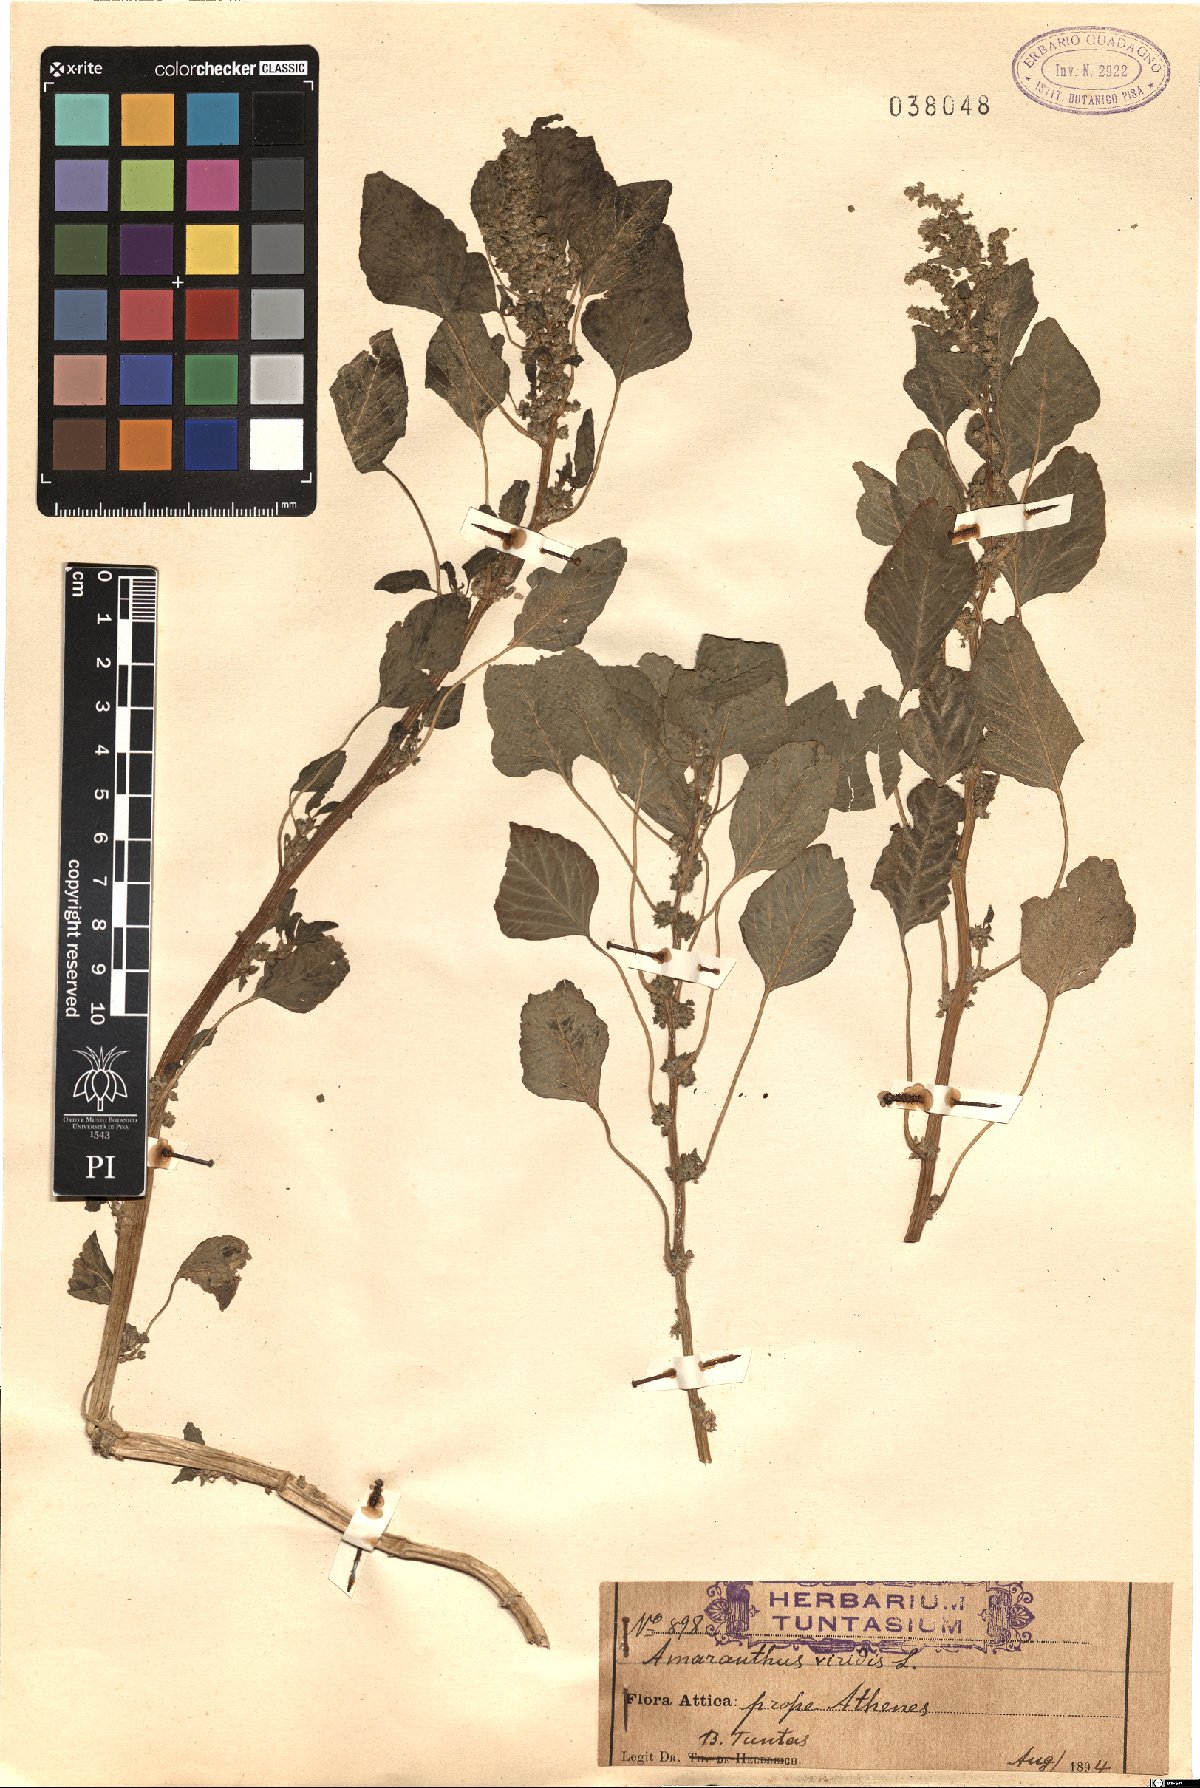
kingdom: Plantae
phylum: Tracheophyta
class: Magnoliopsida
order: Caryophyllales
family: Amaranthaceae
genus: Amaranthus
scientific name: Amaranthus viridis
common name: Slender amaranth
